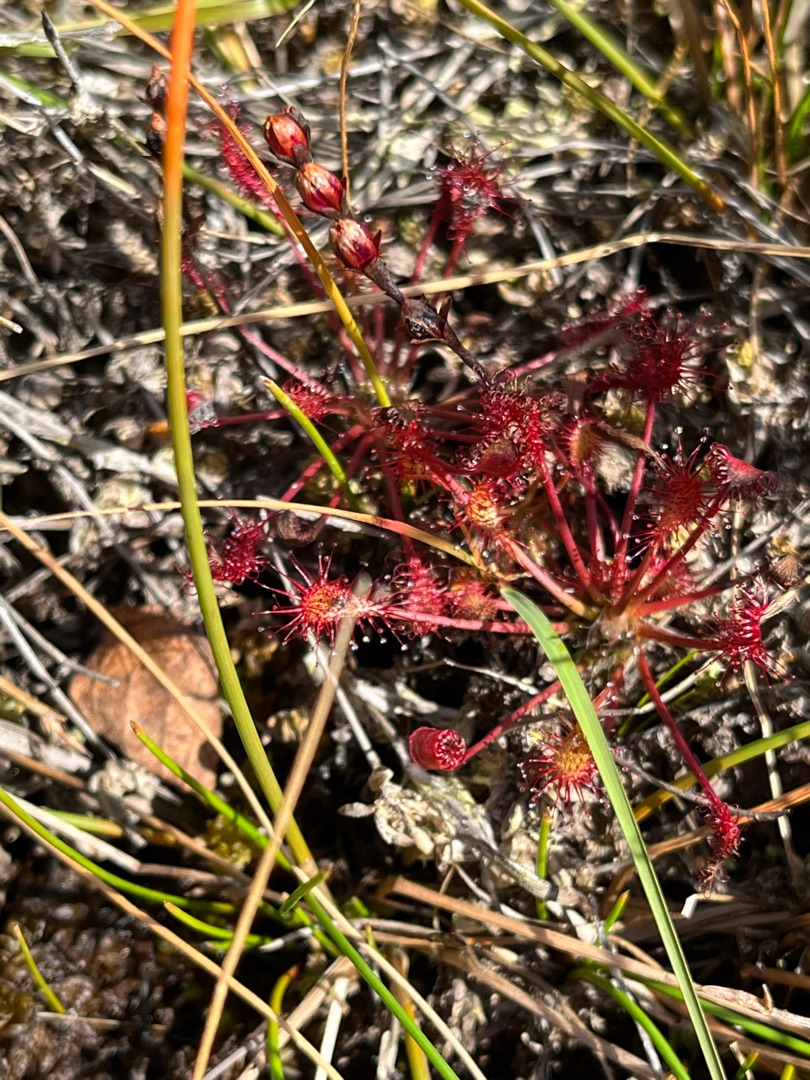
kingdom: Plantae
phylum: Tracheophyta
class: Magnoliopsida
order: Caryophyllales
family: Droseraceae
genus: Drosera
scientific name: Drosera intermedia
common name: Liden soldug
